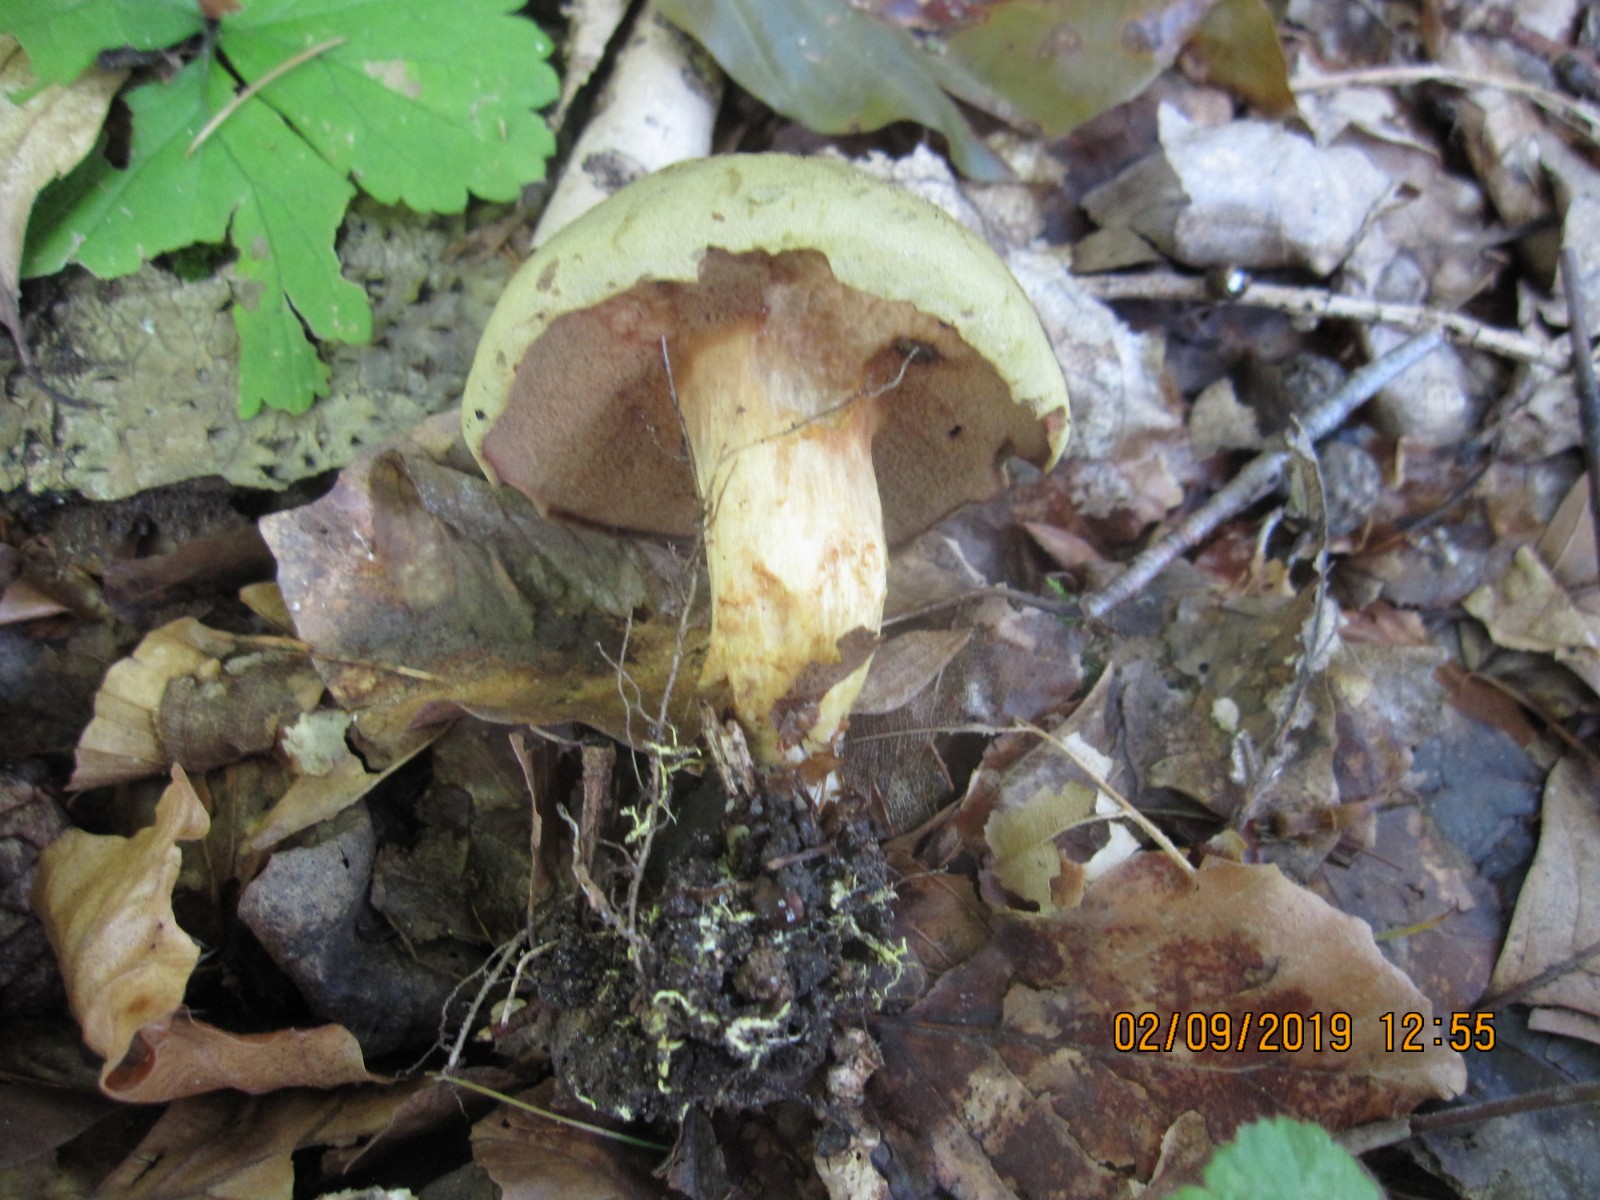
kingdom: Fungi
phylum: Basidiomycota
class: Agaricomycetes
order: Boletales
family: Boletaceae
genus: Xerocomus
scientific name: Xerocomus ferrugineus
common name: vaskeskinds-rørhat
